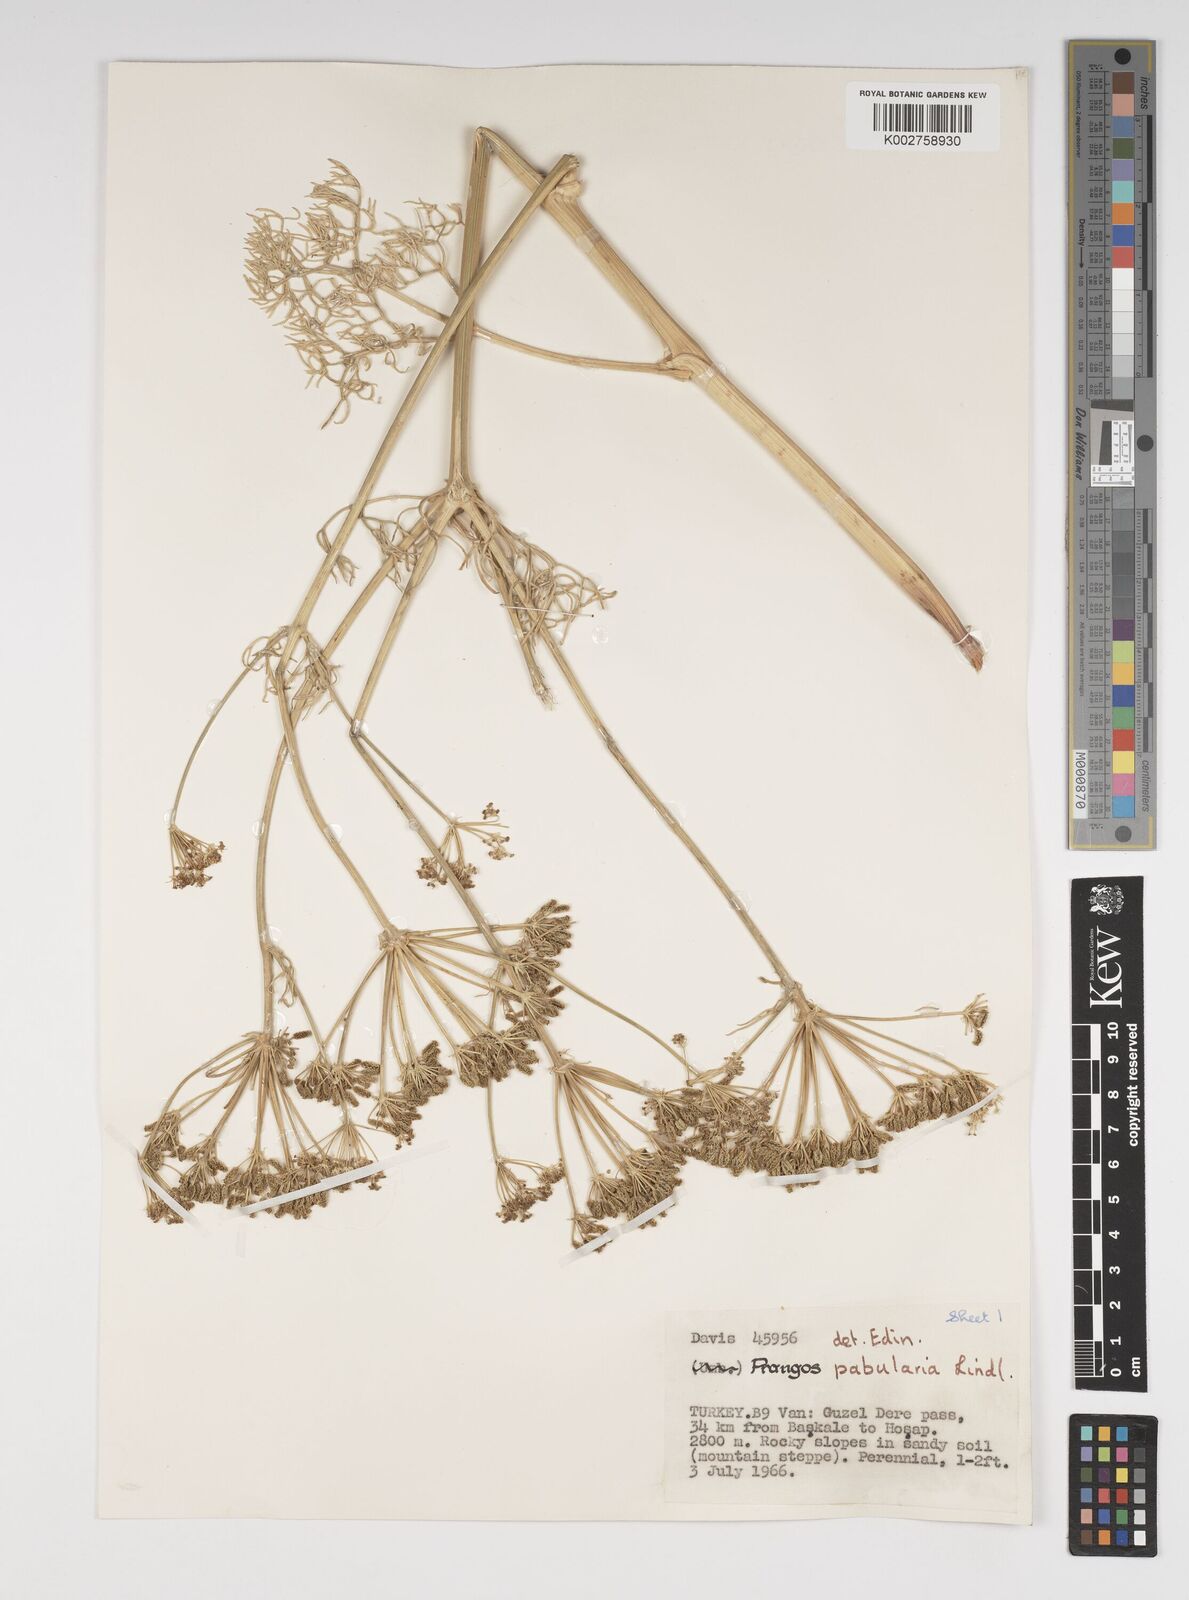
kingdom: Plantae
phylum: Tracheophyta
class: Magnoliopsida
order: Apiales
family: Apiaceae
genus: Prangos
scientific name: Prangos pabularia
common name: Yugan
